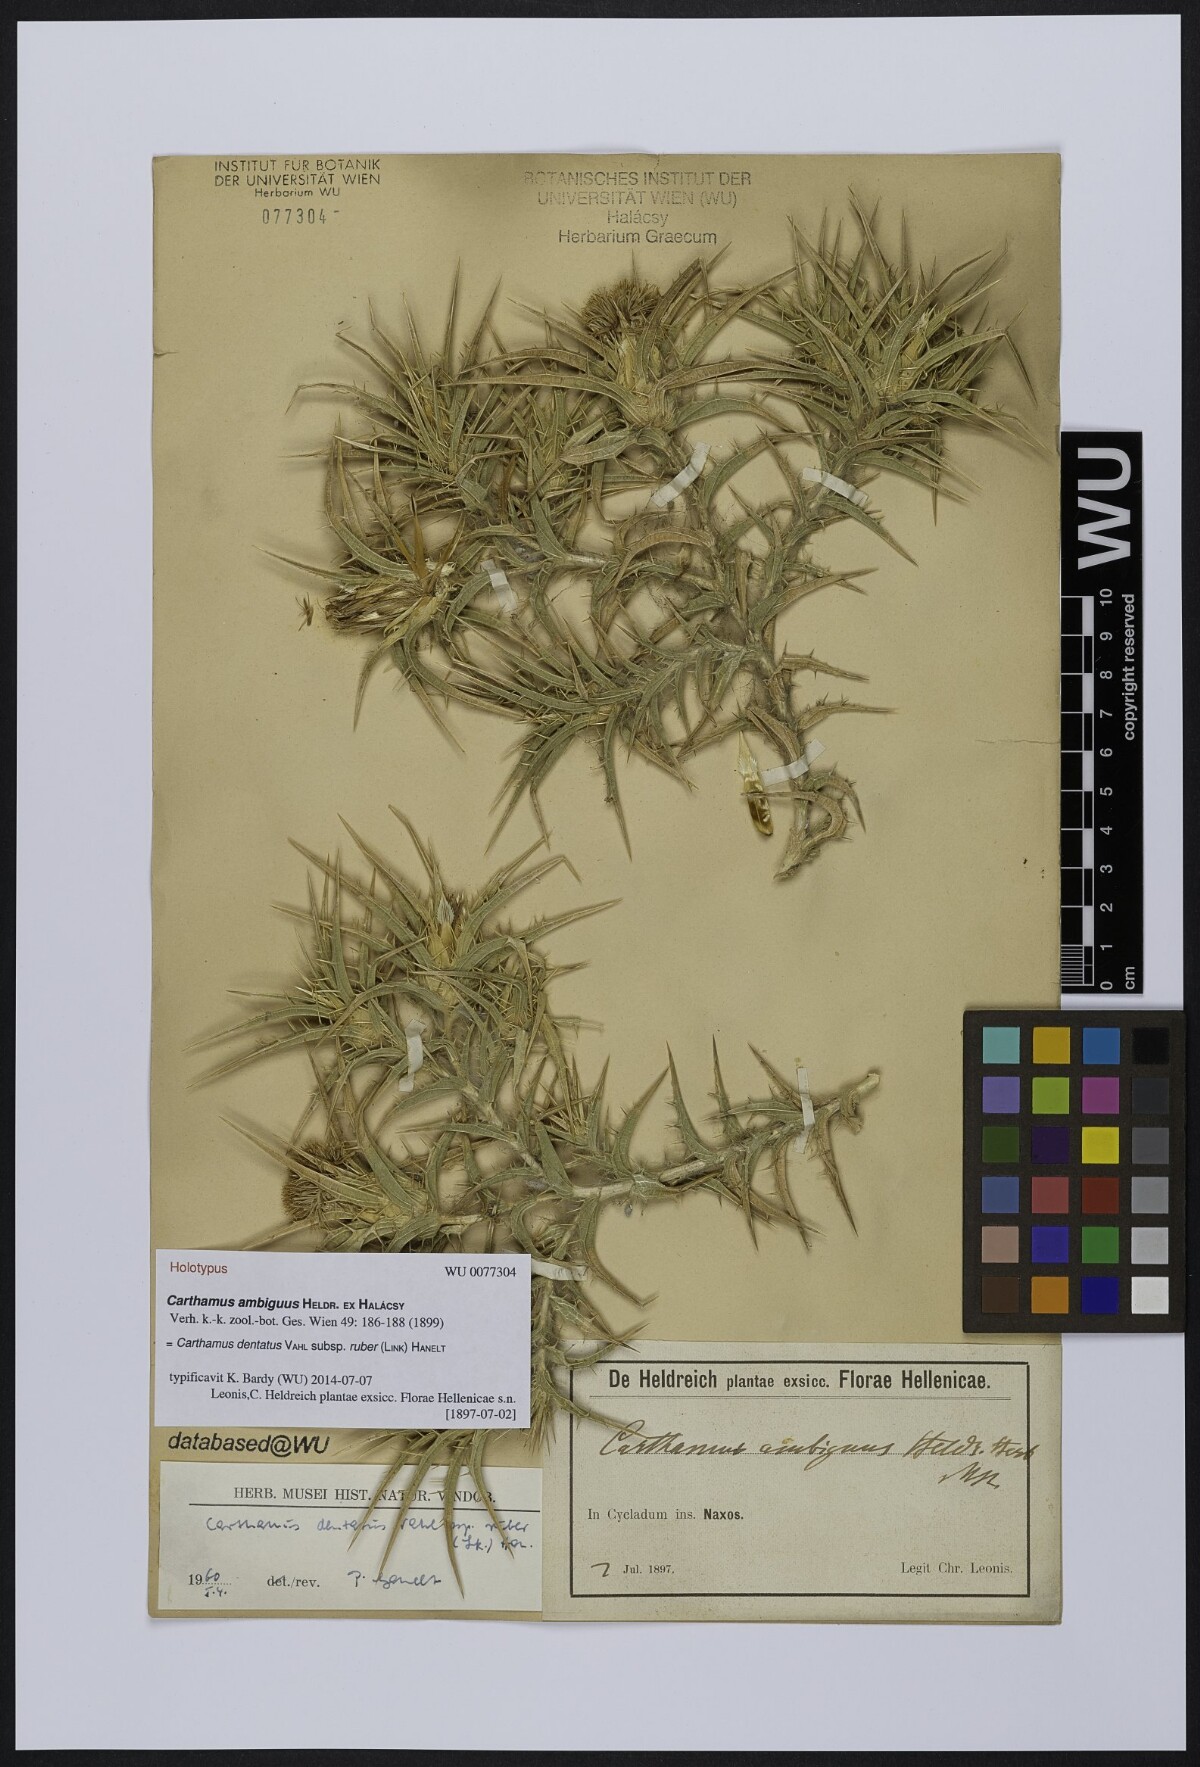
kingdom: Plantae
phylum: Tracheophyta
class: Magnoliopsida
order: Asterales
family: Asteraceae
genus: Carthamus
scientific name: Carthamus dentatus
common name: Toothed thistle
